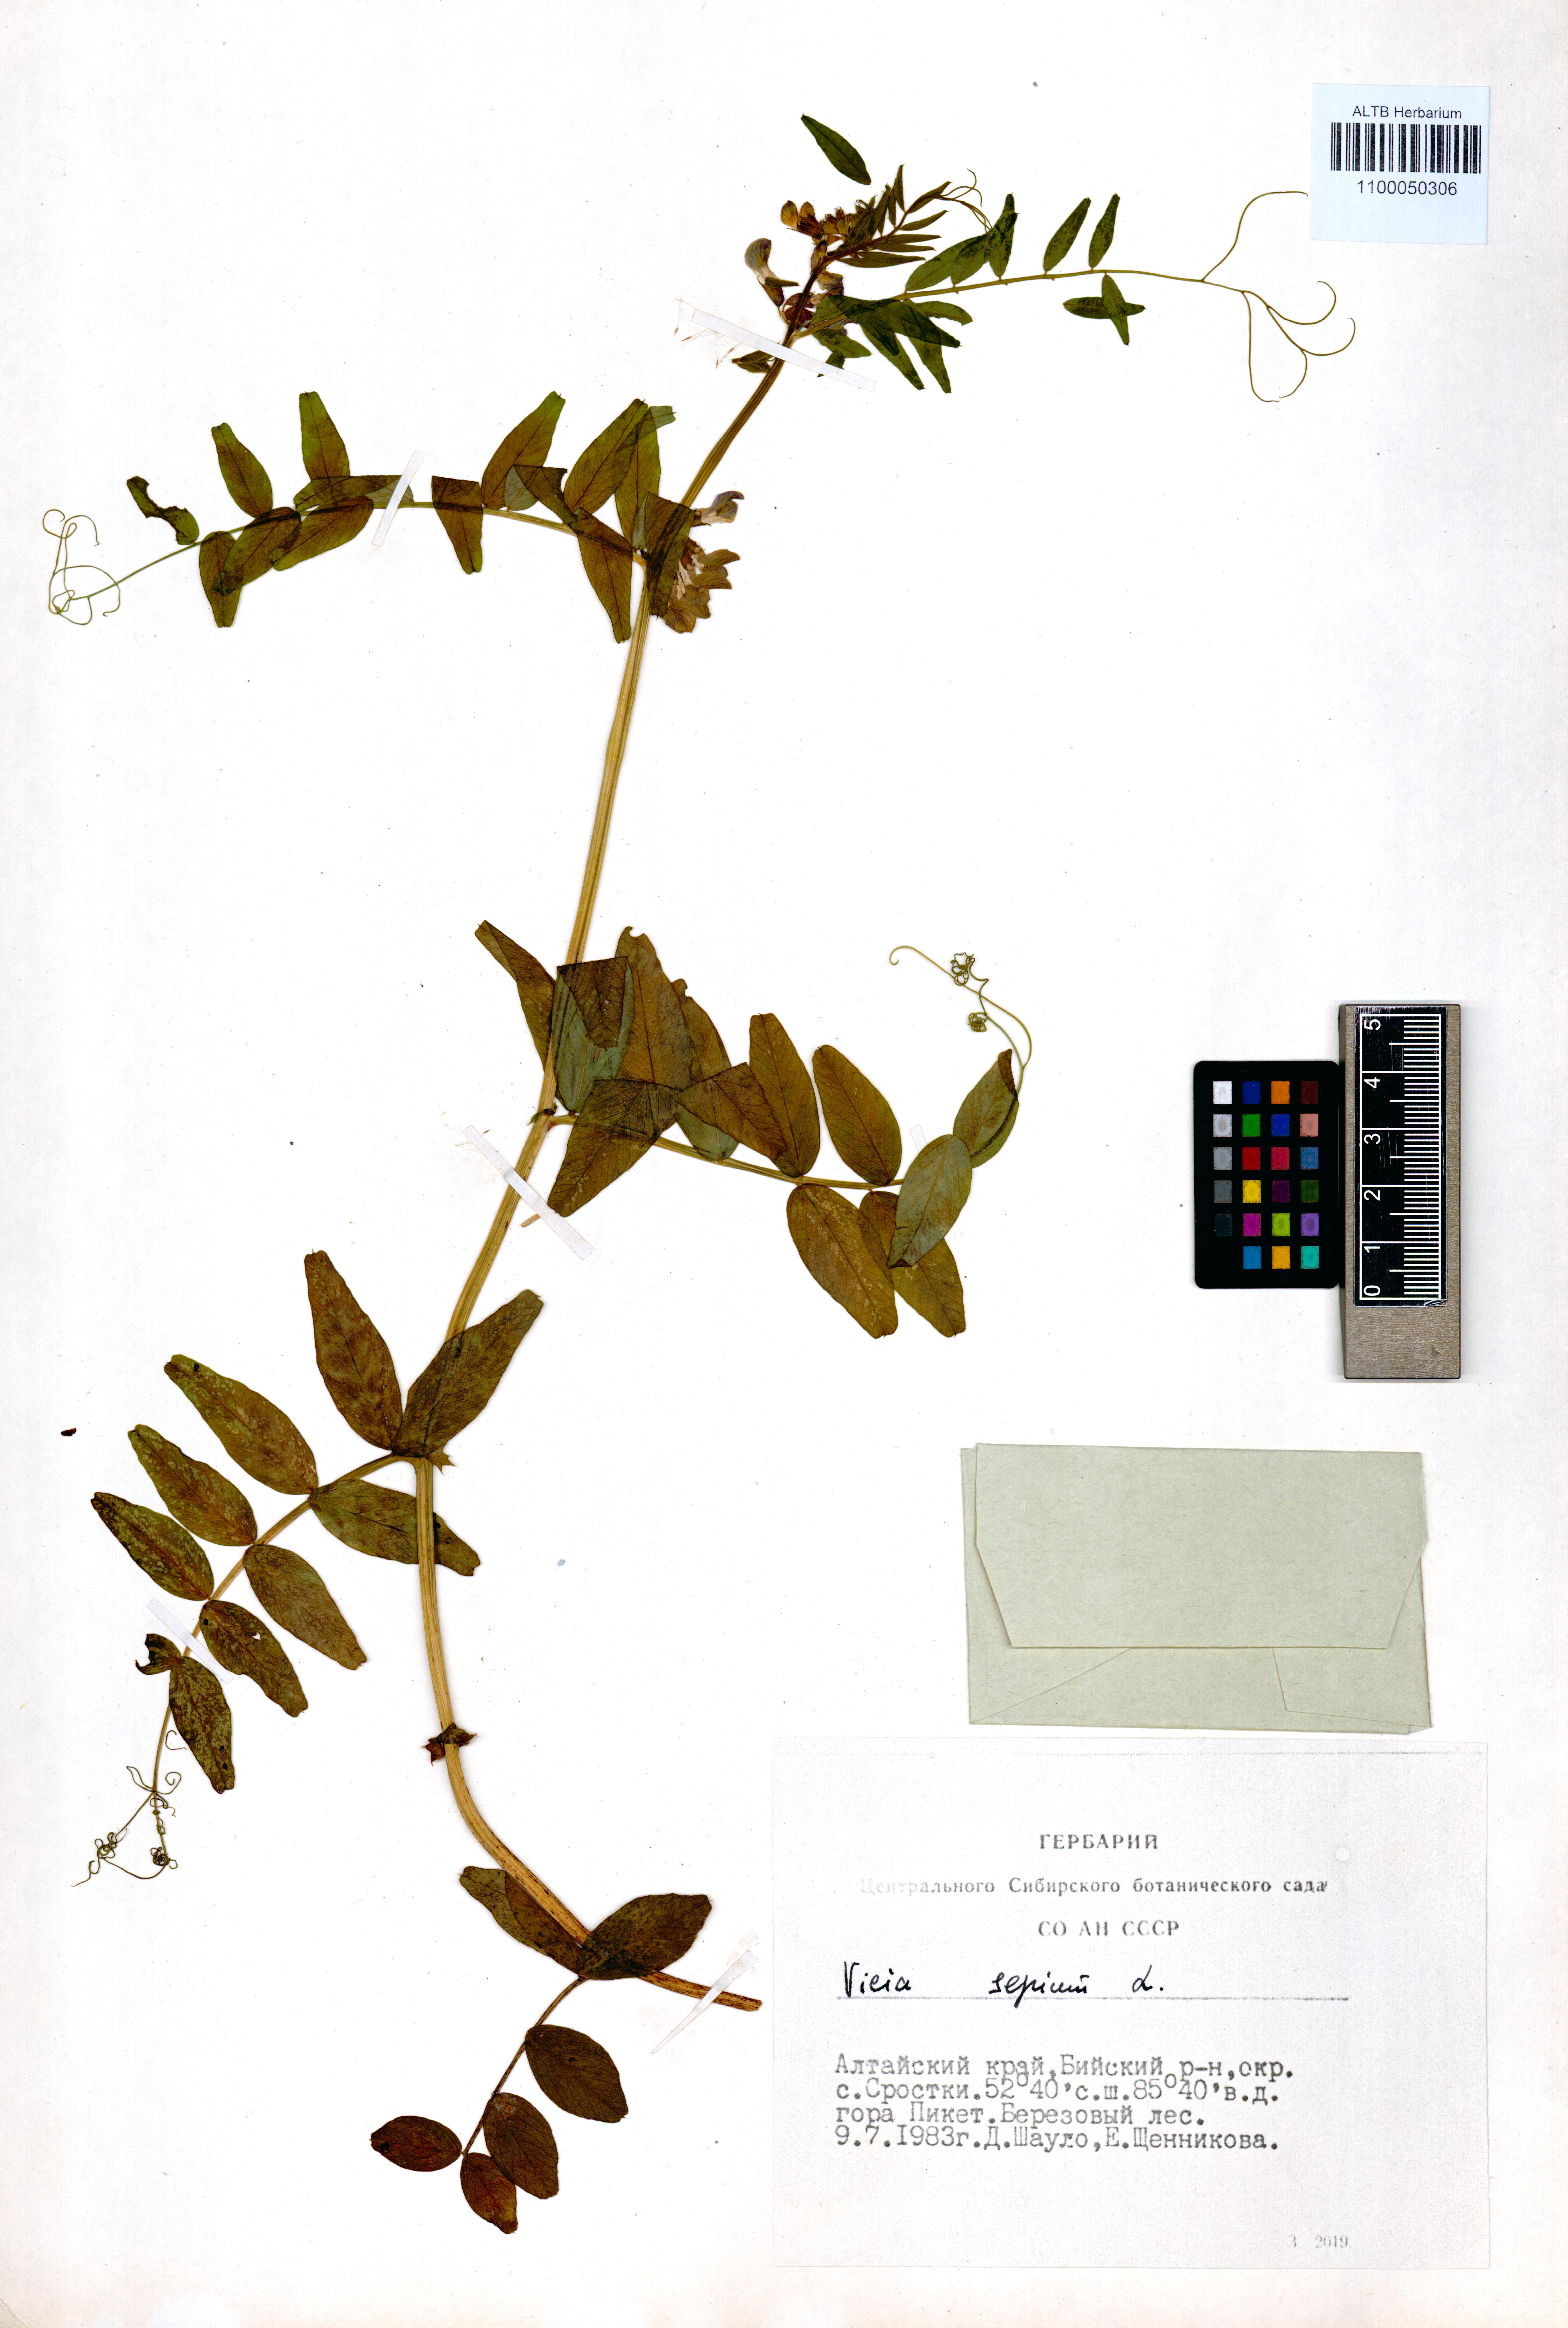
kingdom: Plantae
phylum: Tracheophyta
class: Magnoliopsida
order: Fabales
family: Fabaceae
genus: Vicia
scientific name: Vicia sepium
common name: Bush vetch
